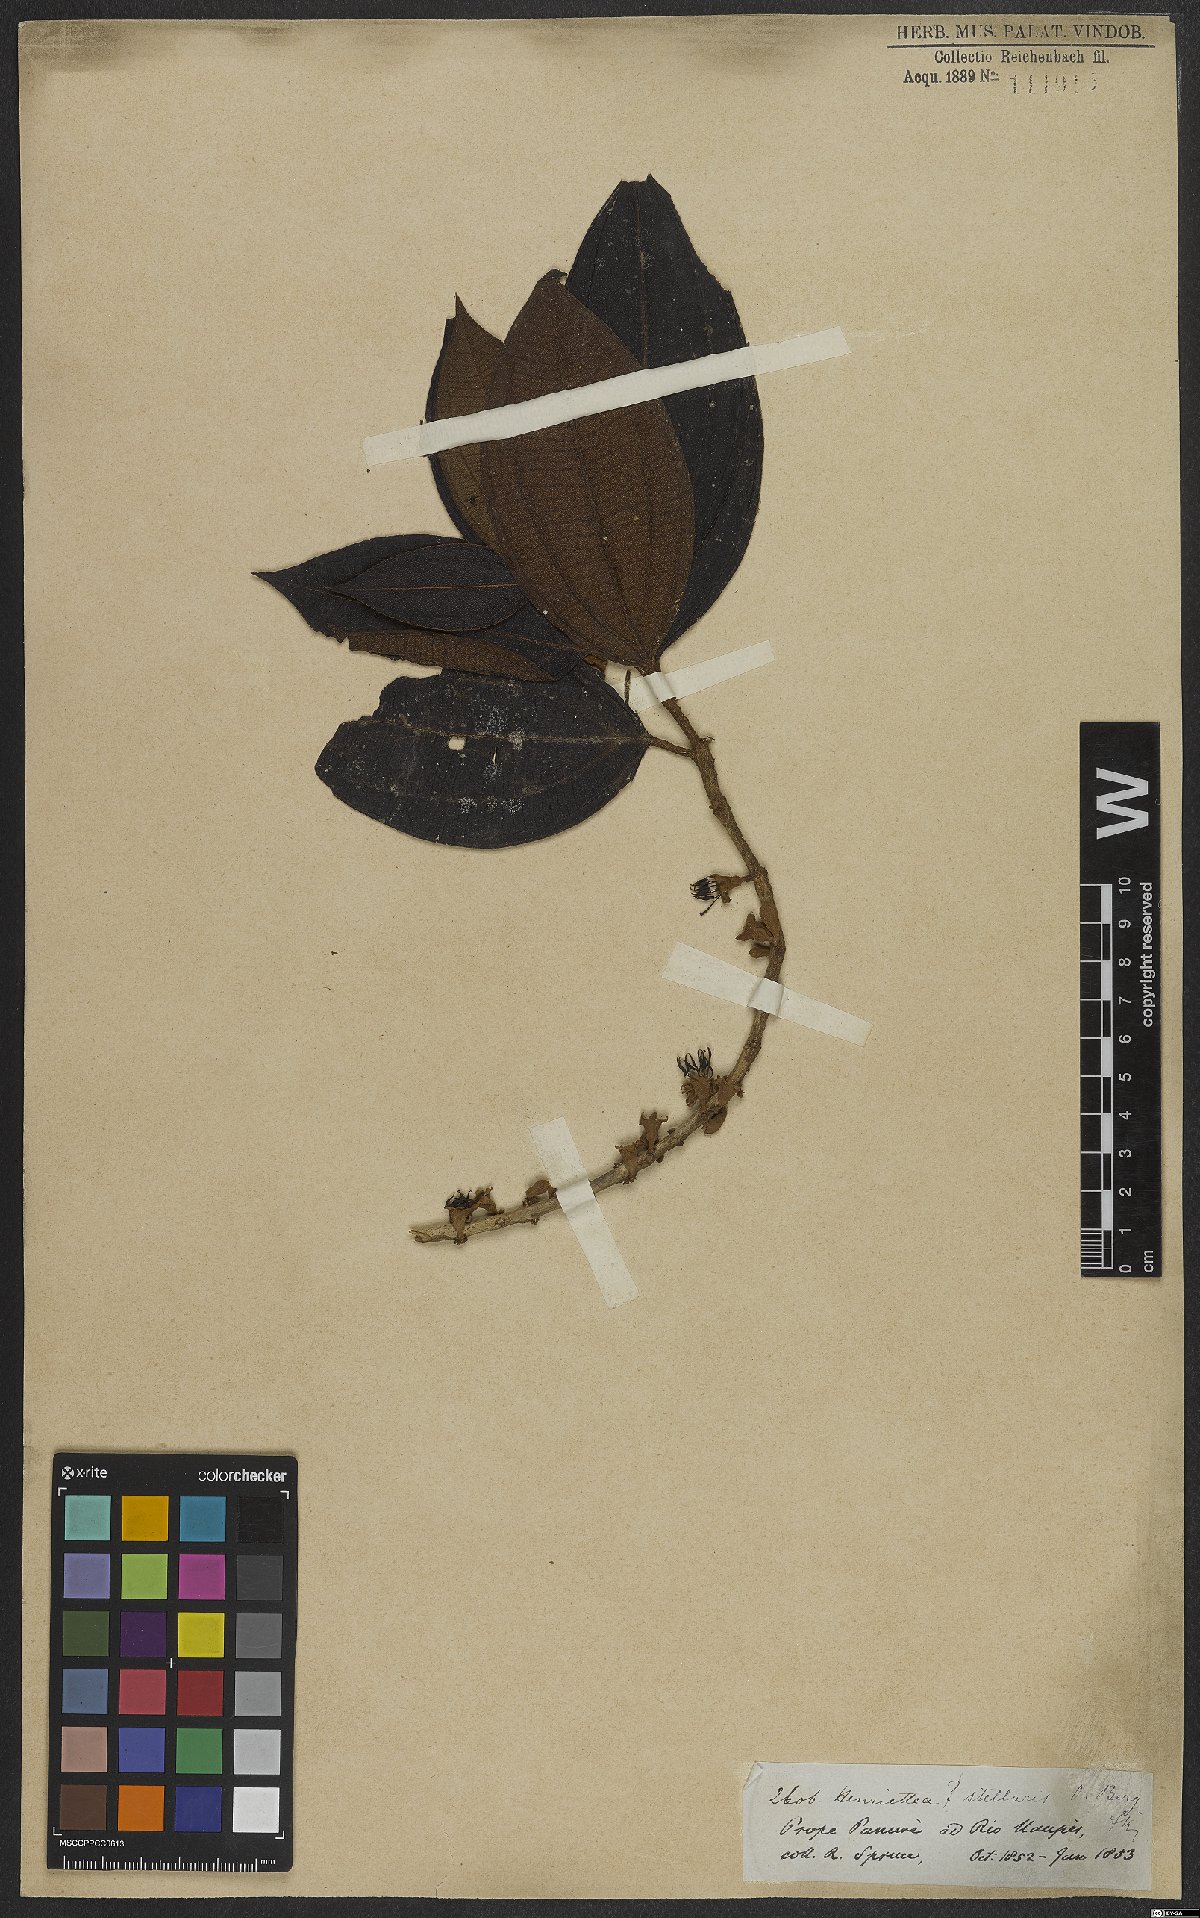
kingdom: Plantae
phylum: Tracheophyta
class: Magnoliopsida
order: Myrtales
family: Melastomataceae
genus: Henriettea
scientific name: Henriettea stellaris
